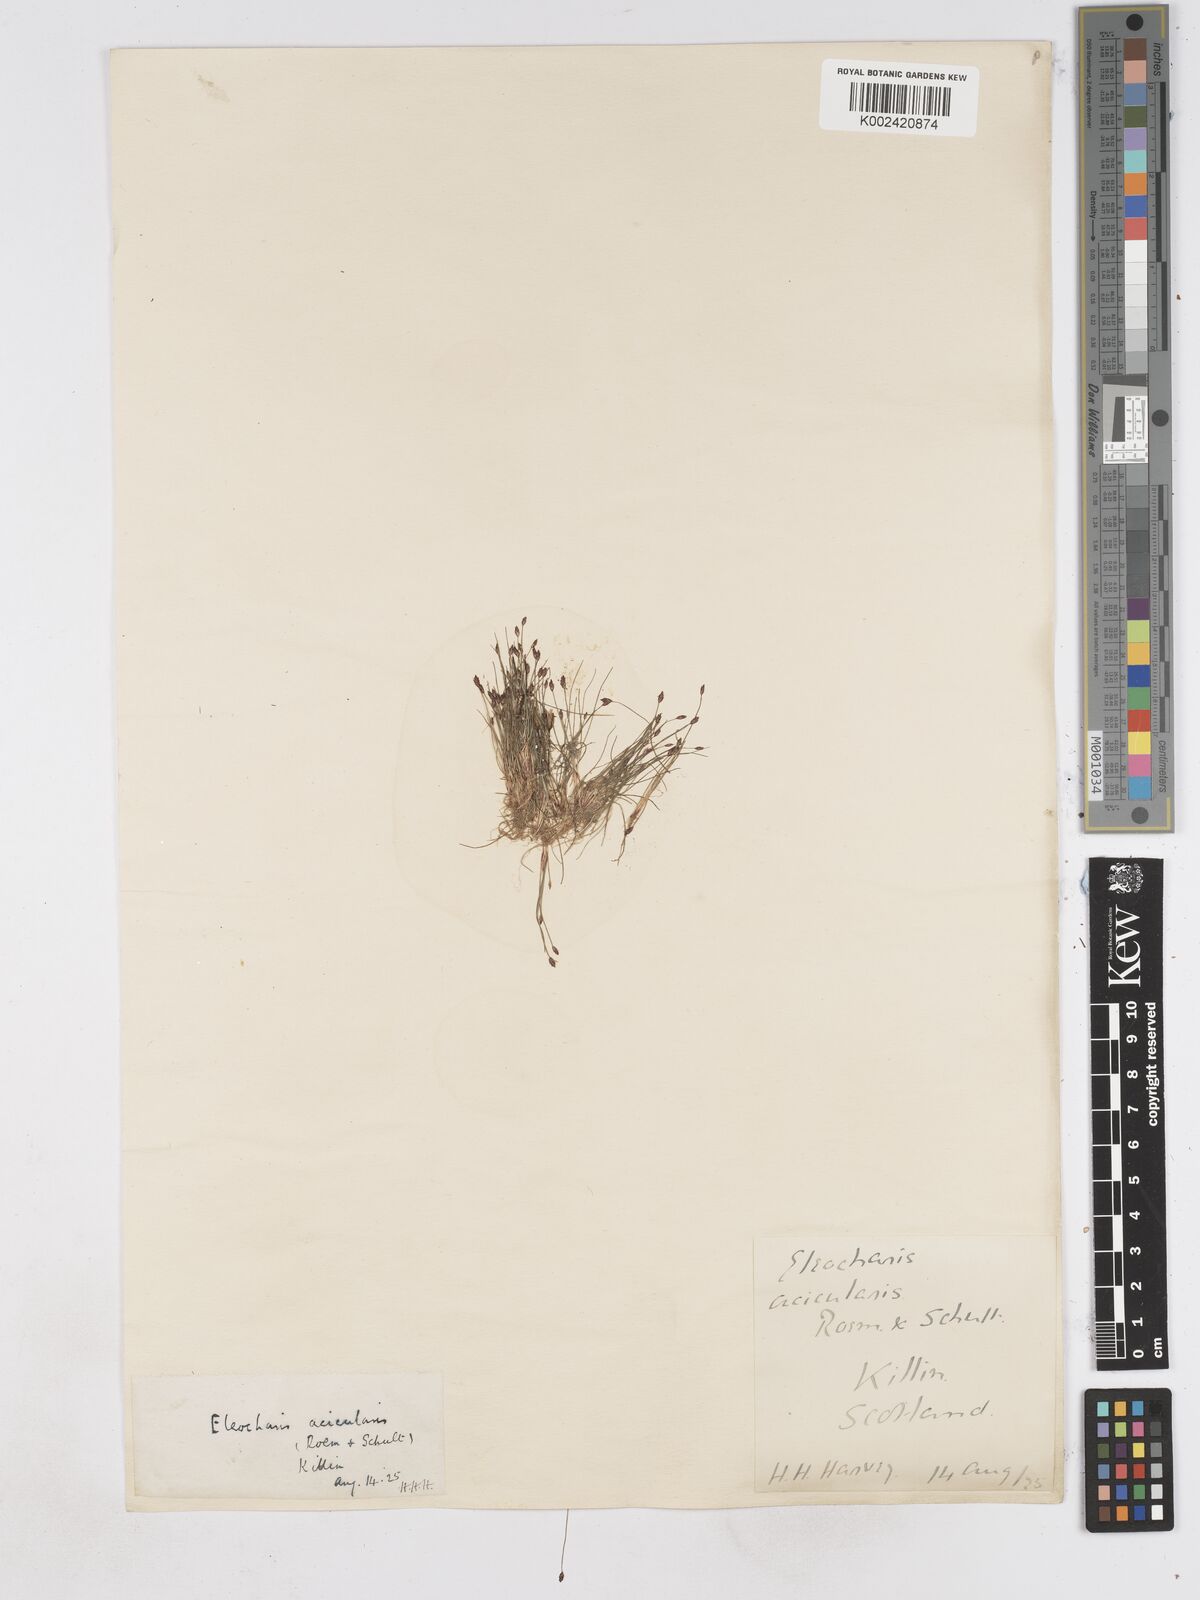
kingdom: Plantae
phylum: Tracheophyta
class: Liliopsida
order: Poales
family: Cyperaceae
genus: Eleocharis
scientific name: Eleocharis acicularis
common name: Needle spike-rush
